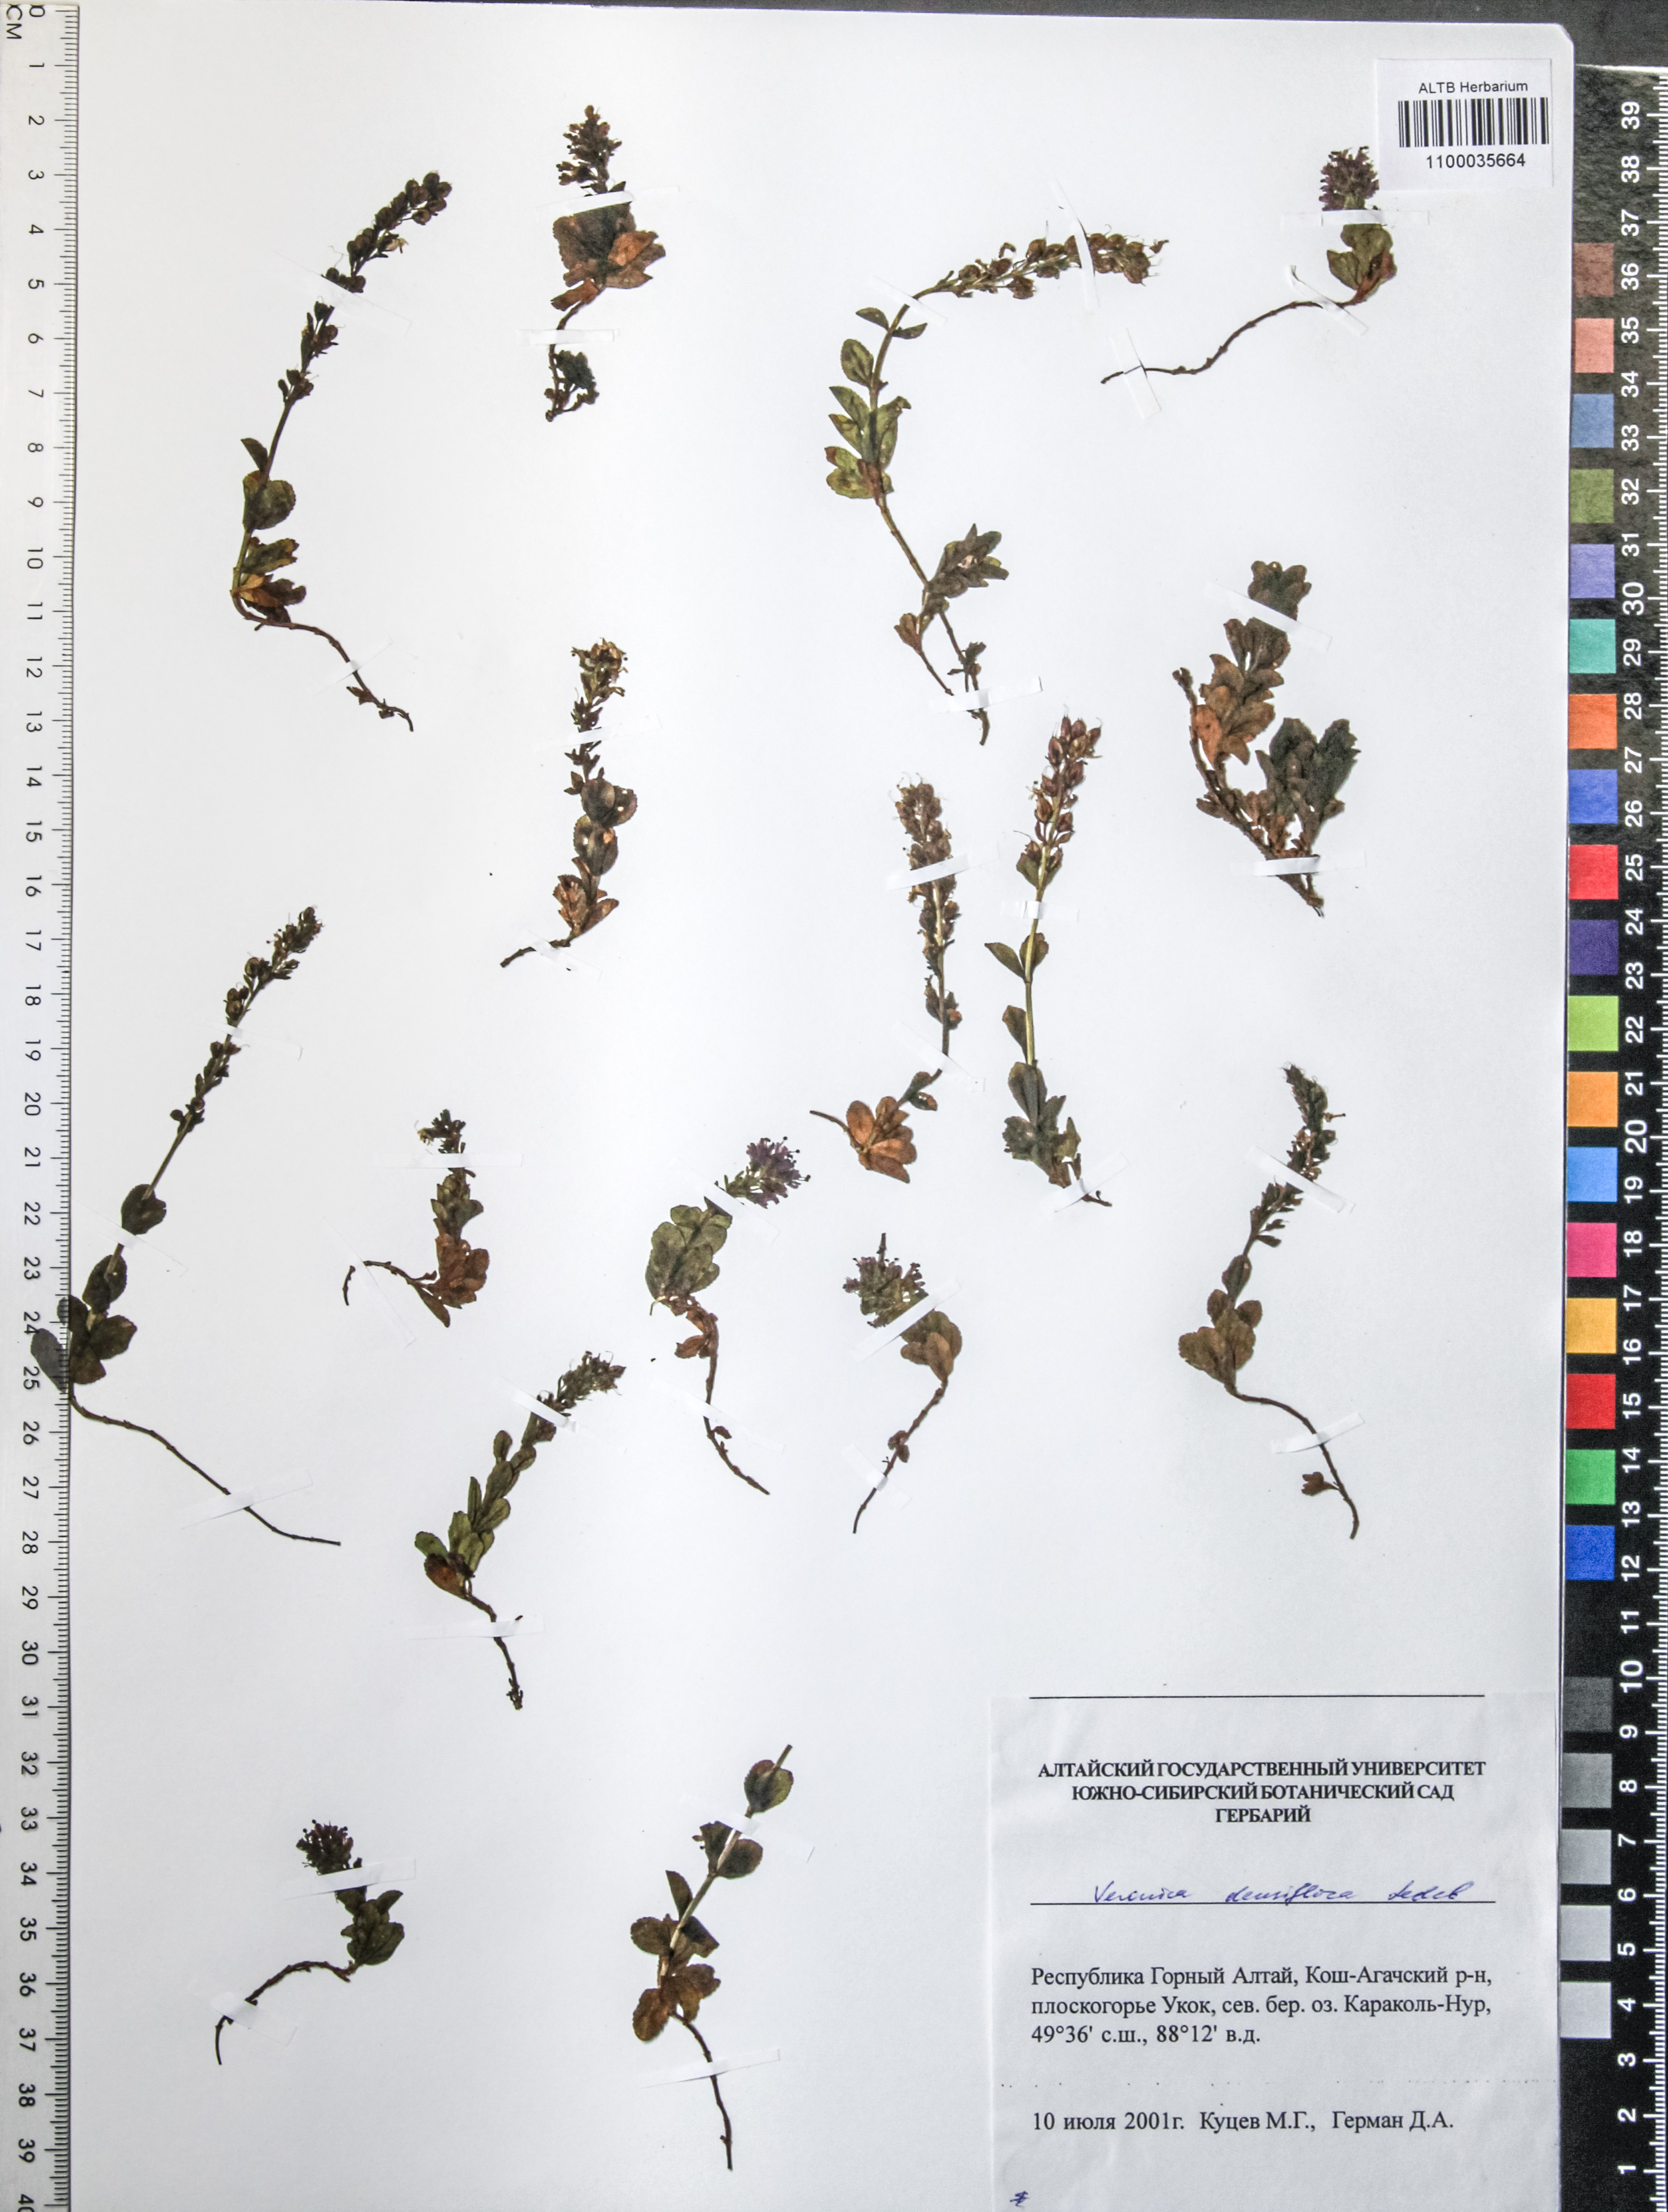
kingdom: Plantae
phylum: Tracheophyta
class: Magnoliopsida
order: Lamiales
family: Plantaginaceae
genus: Veronica
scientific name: Veronica densiflora
